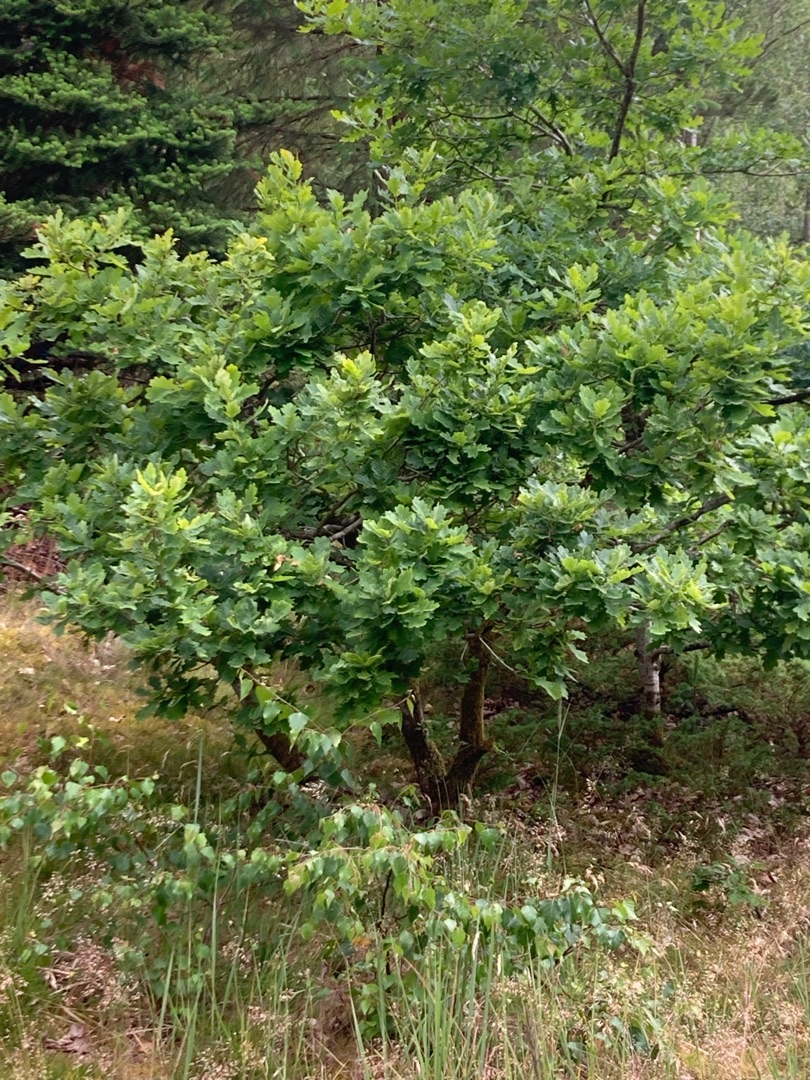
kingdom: Plantae
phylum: Tracheophyta
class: Magnoliopsida
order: Fagales
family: Fagaceae
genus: Quercus
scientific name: Quercus robur
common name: Stilk-eg/almindelig eg
